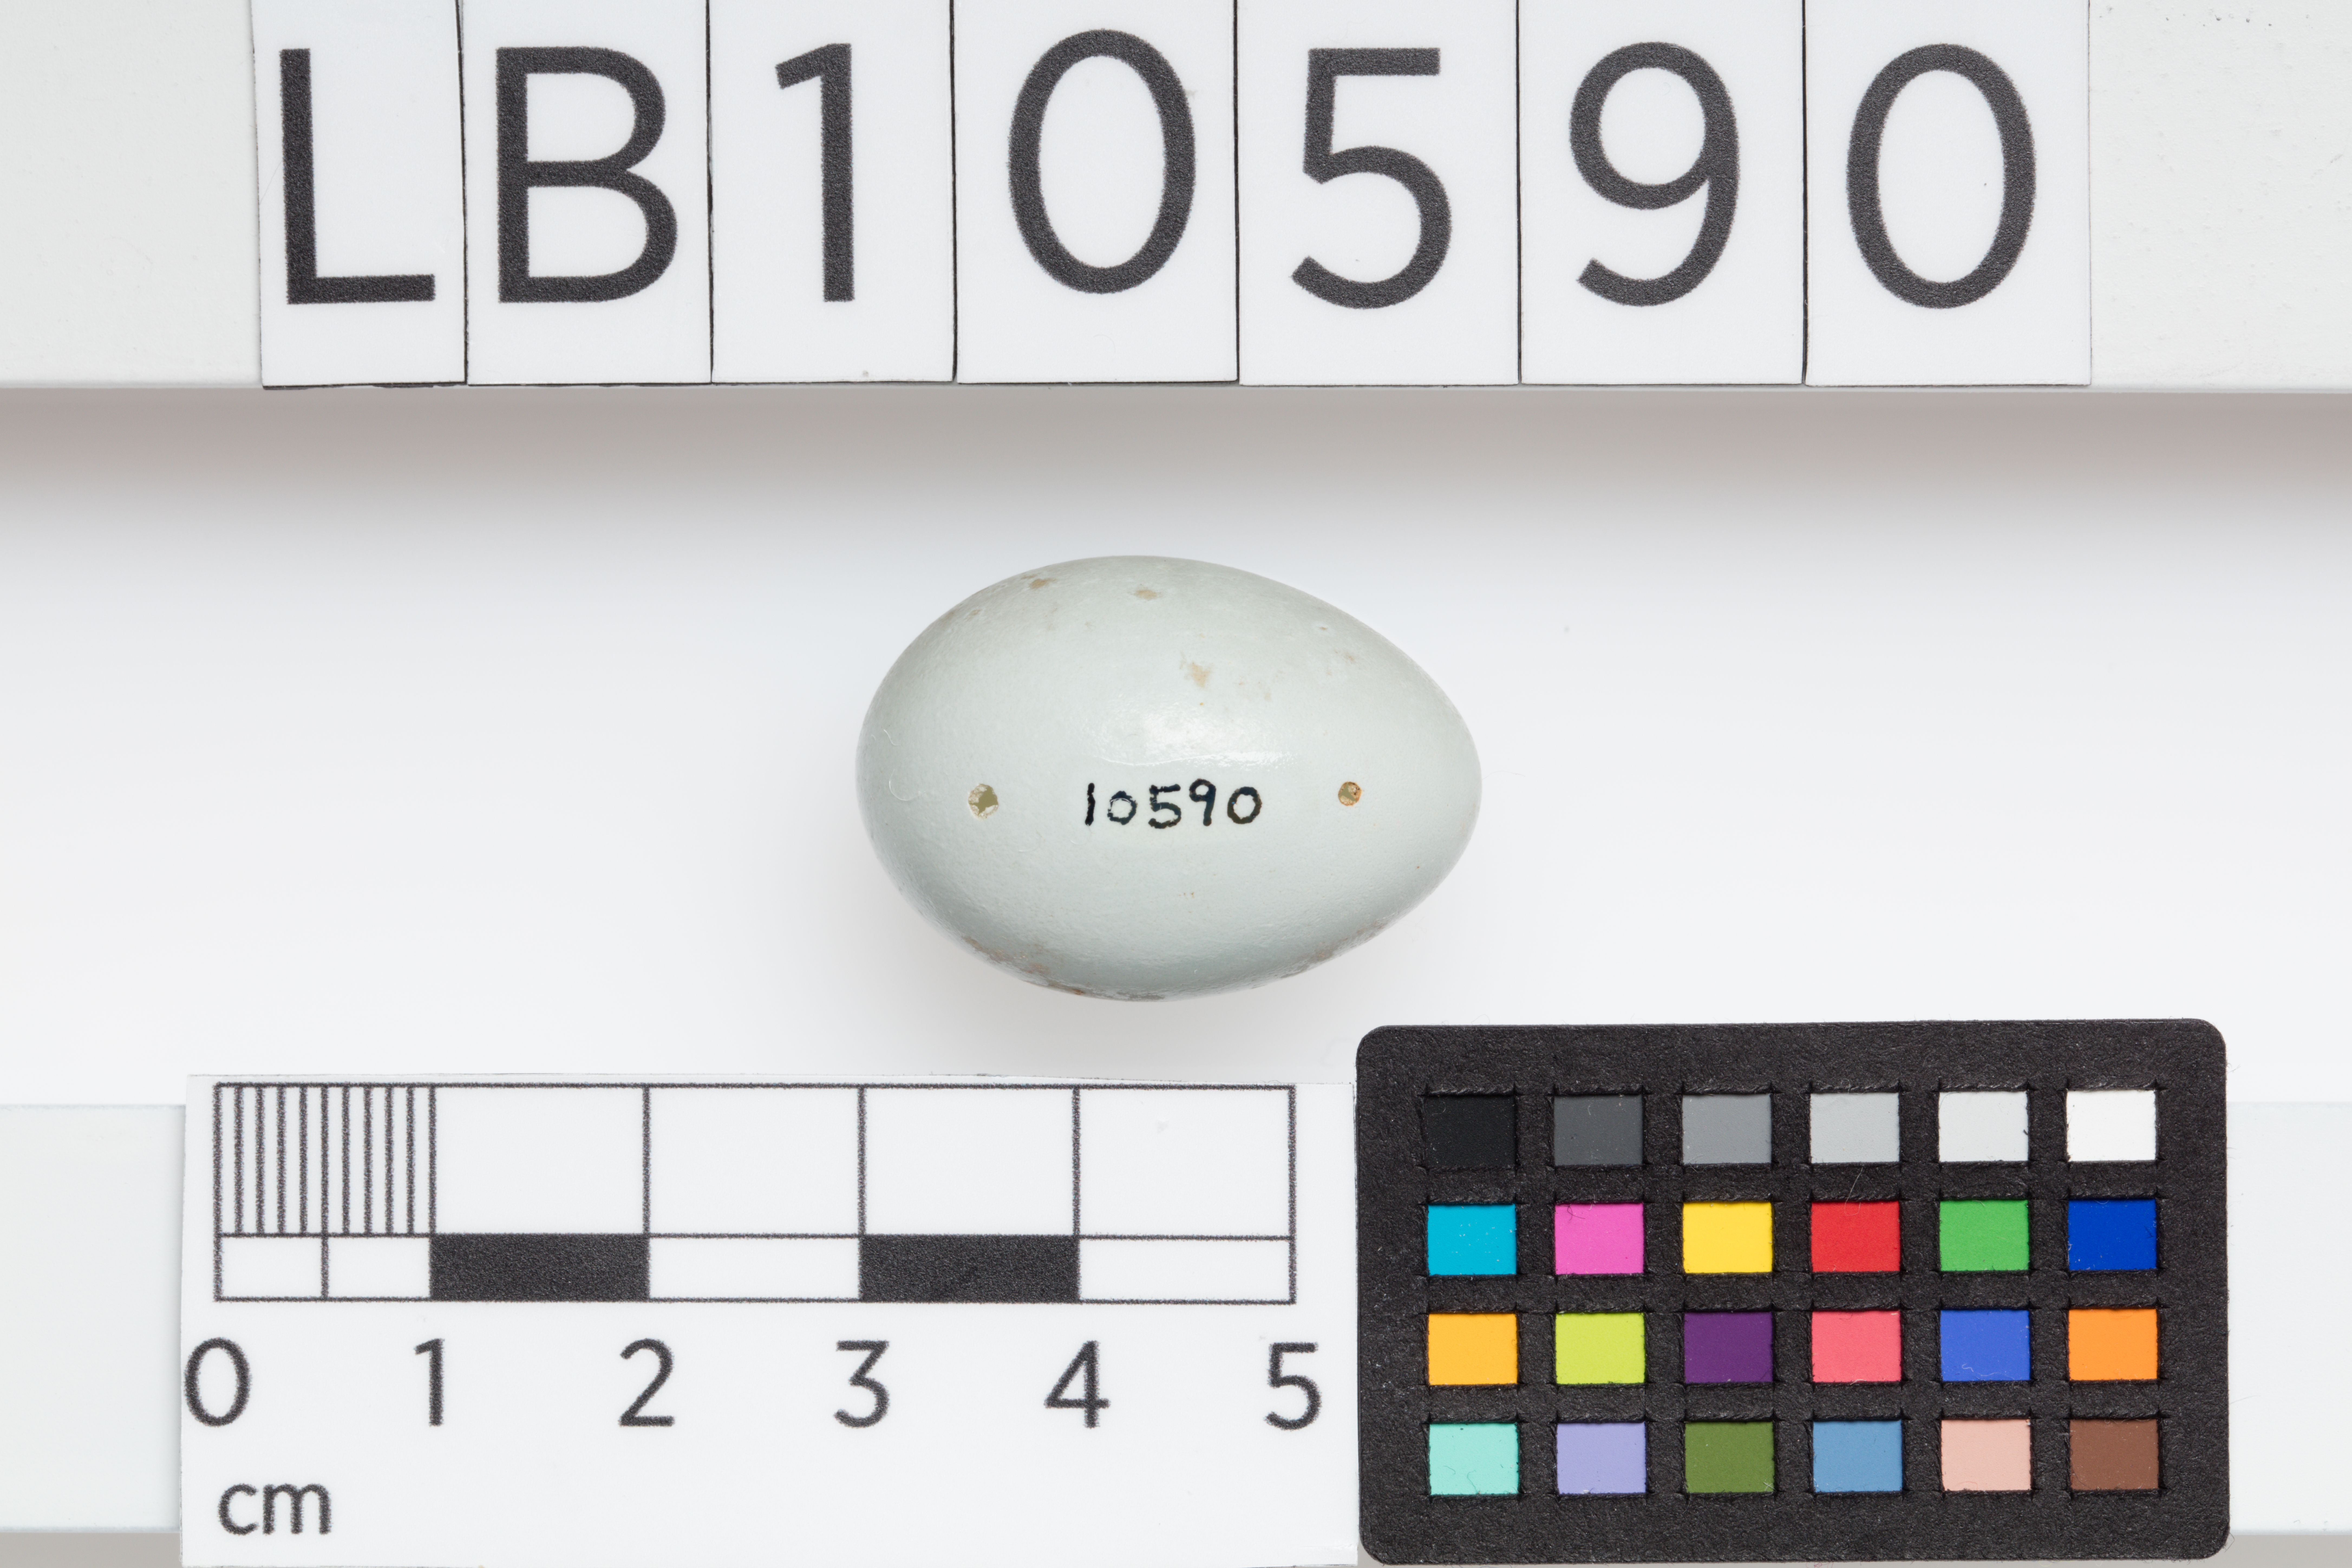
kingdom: Animalia
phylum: Chordata
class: Aves
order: Passeriformes
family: Sturnidae
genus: Sturnus
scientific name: Sturnus vulgaris
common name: Common starling
